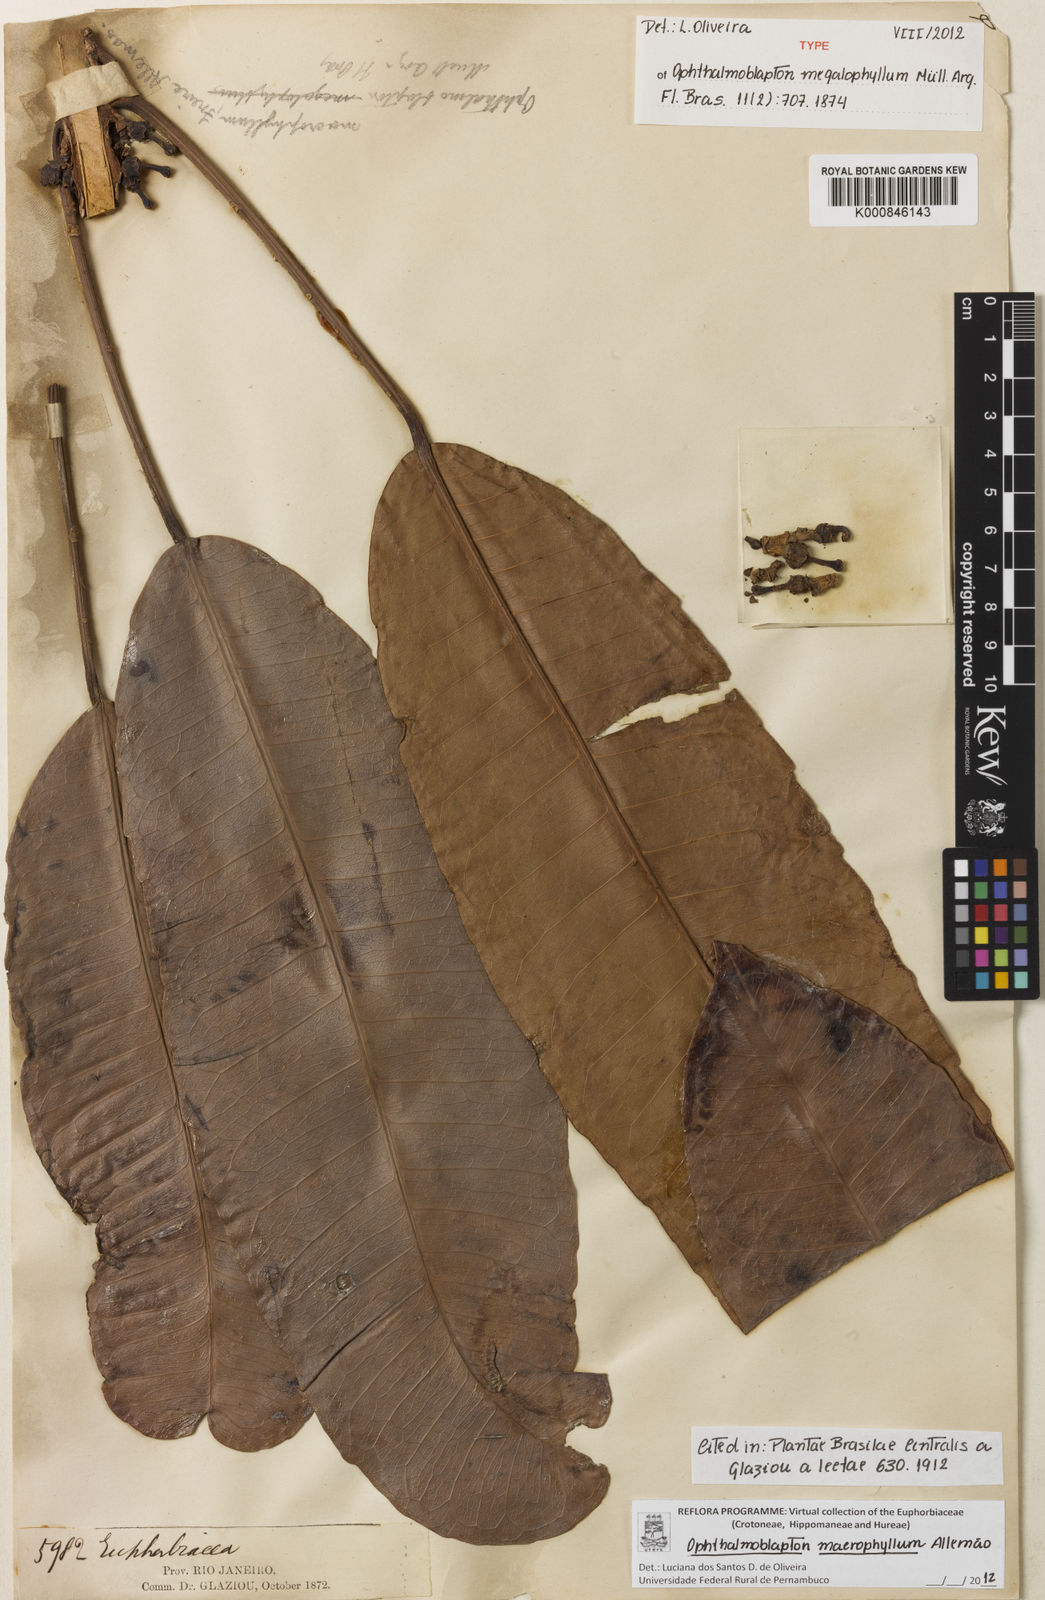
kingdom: Plantae
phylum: Tracheophyta
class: Magnoliopsida
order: Malpighiales
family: Euphorbiaceae
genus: Ophthalmoblapton
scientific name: Ophthalmoblapton
